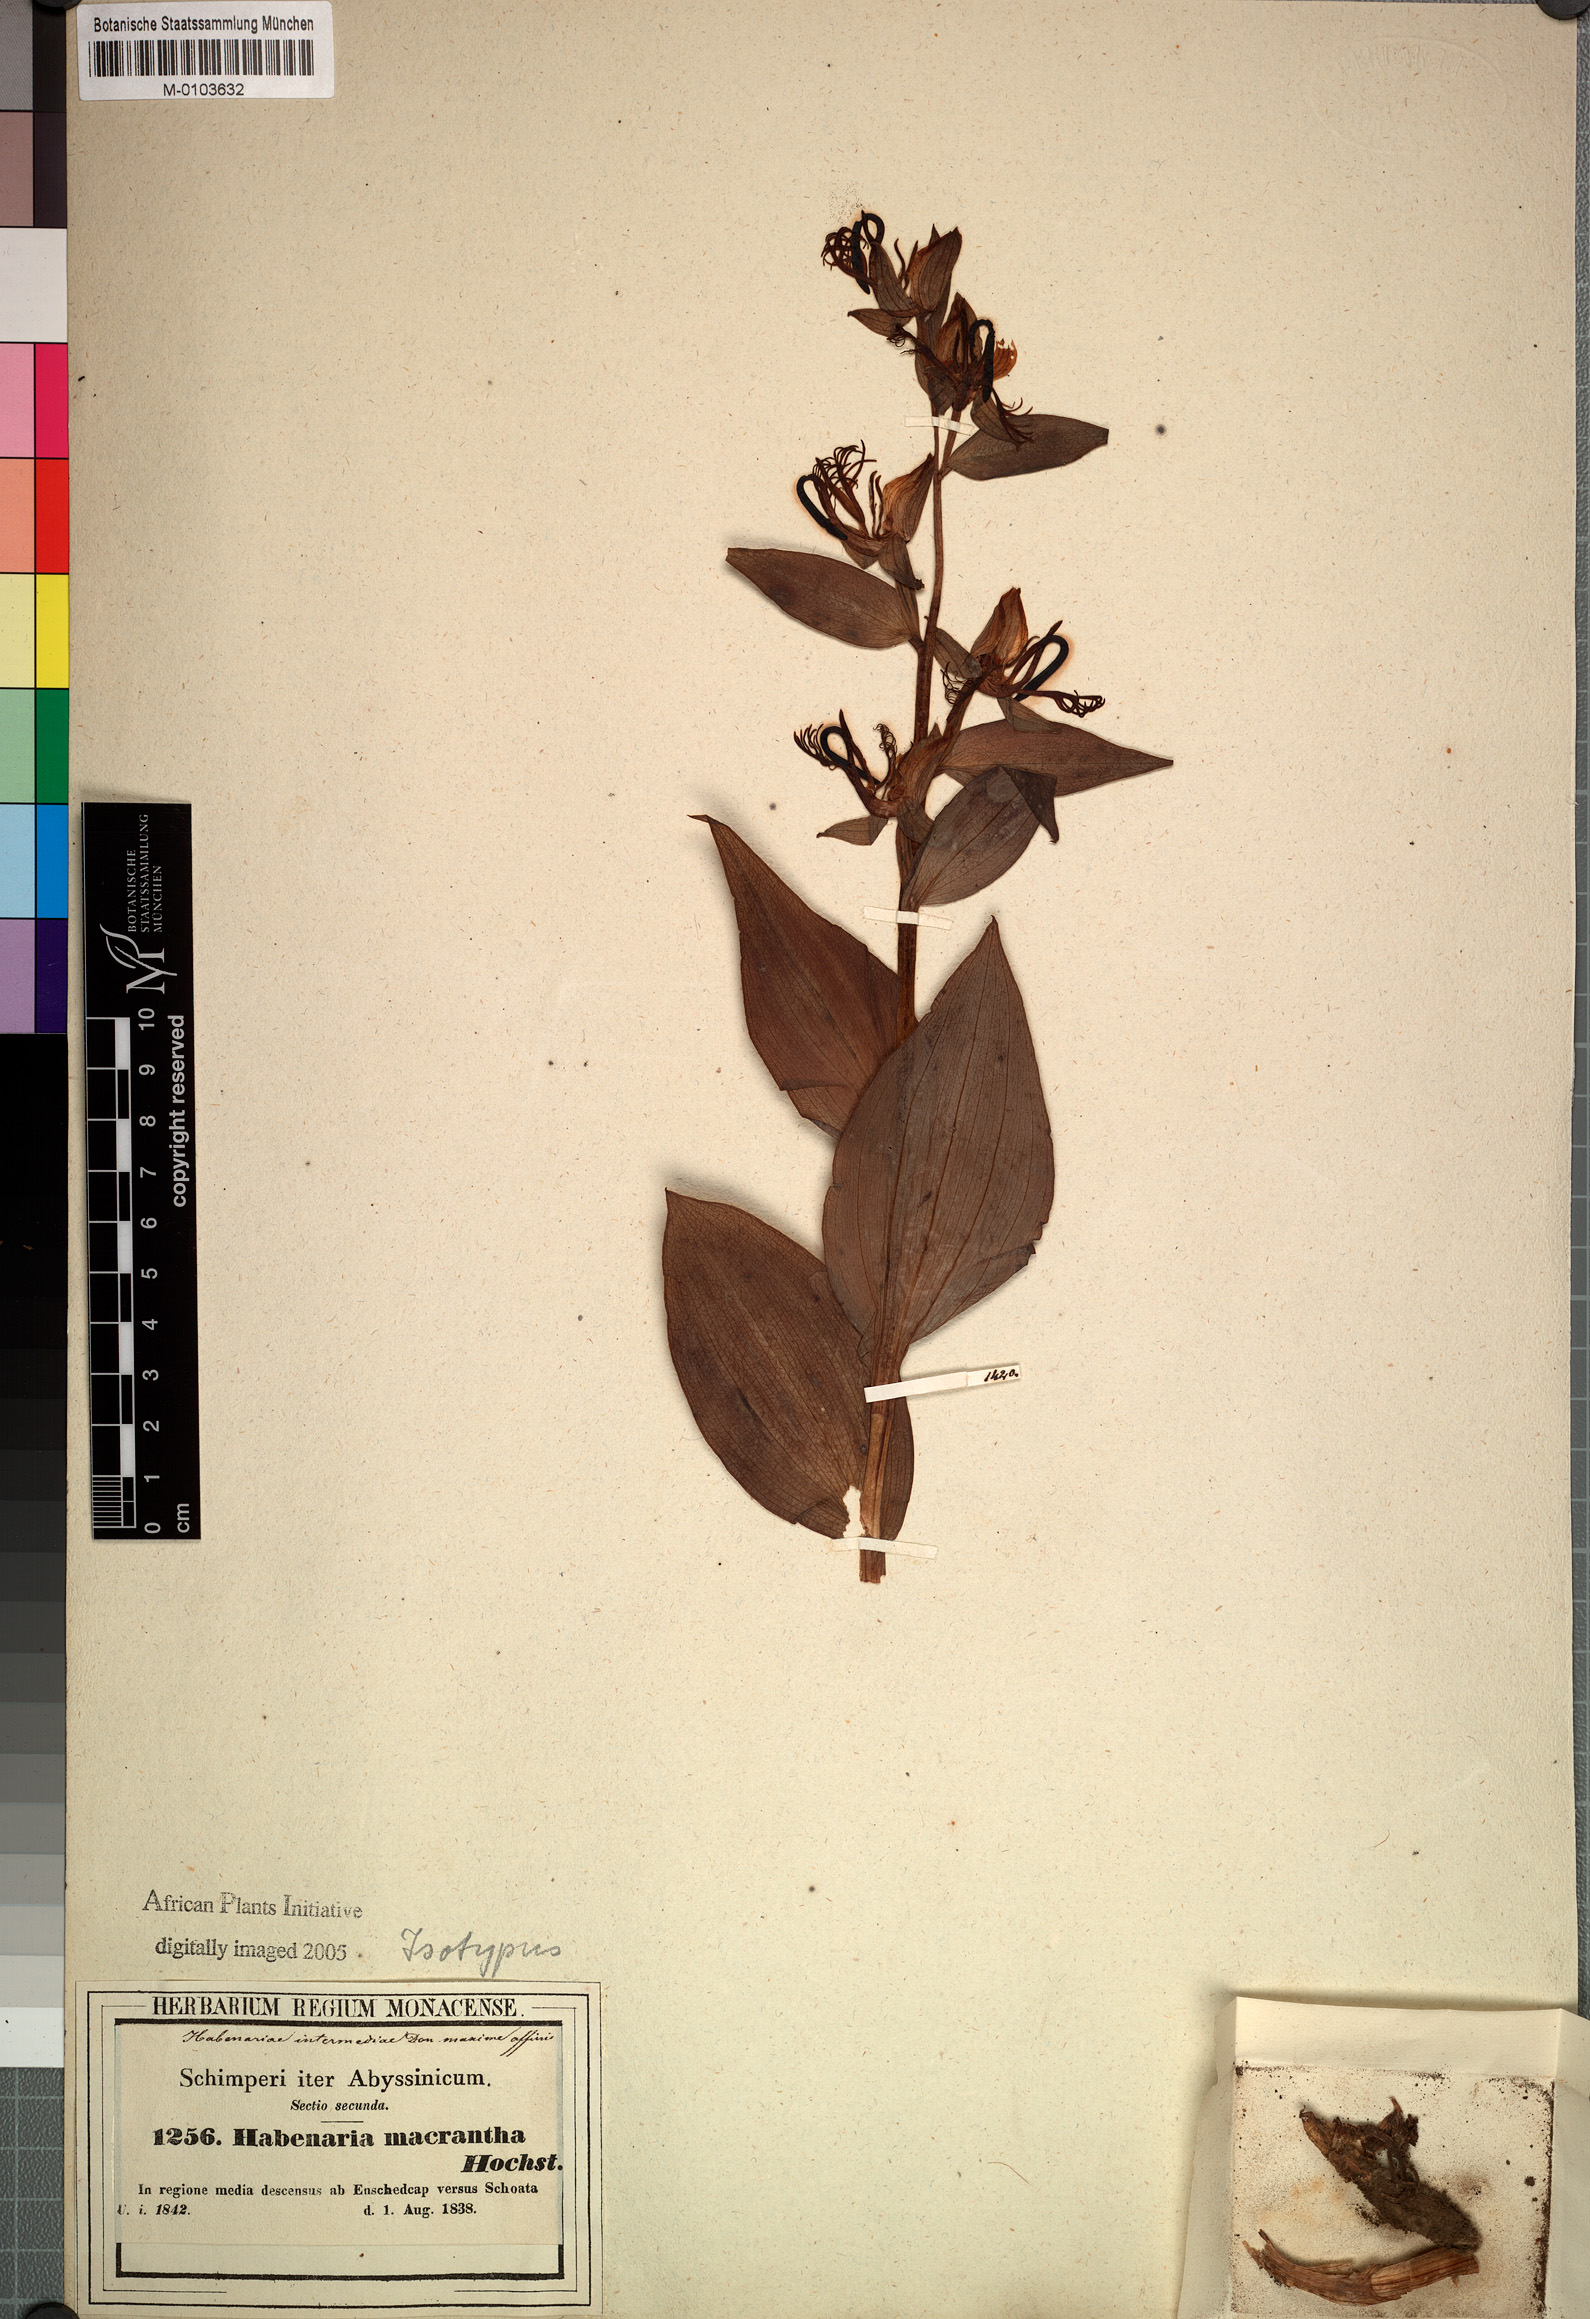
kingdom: Plantae
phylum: Tracheophyta
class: Liliopsida
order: Asparagales
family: Orchidaceae
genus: Habenaria
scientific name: Habenaria macrantha
